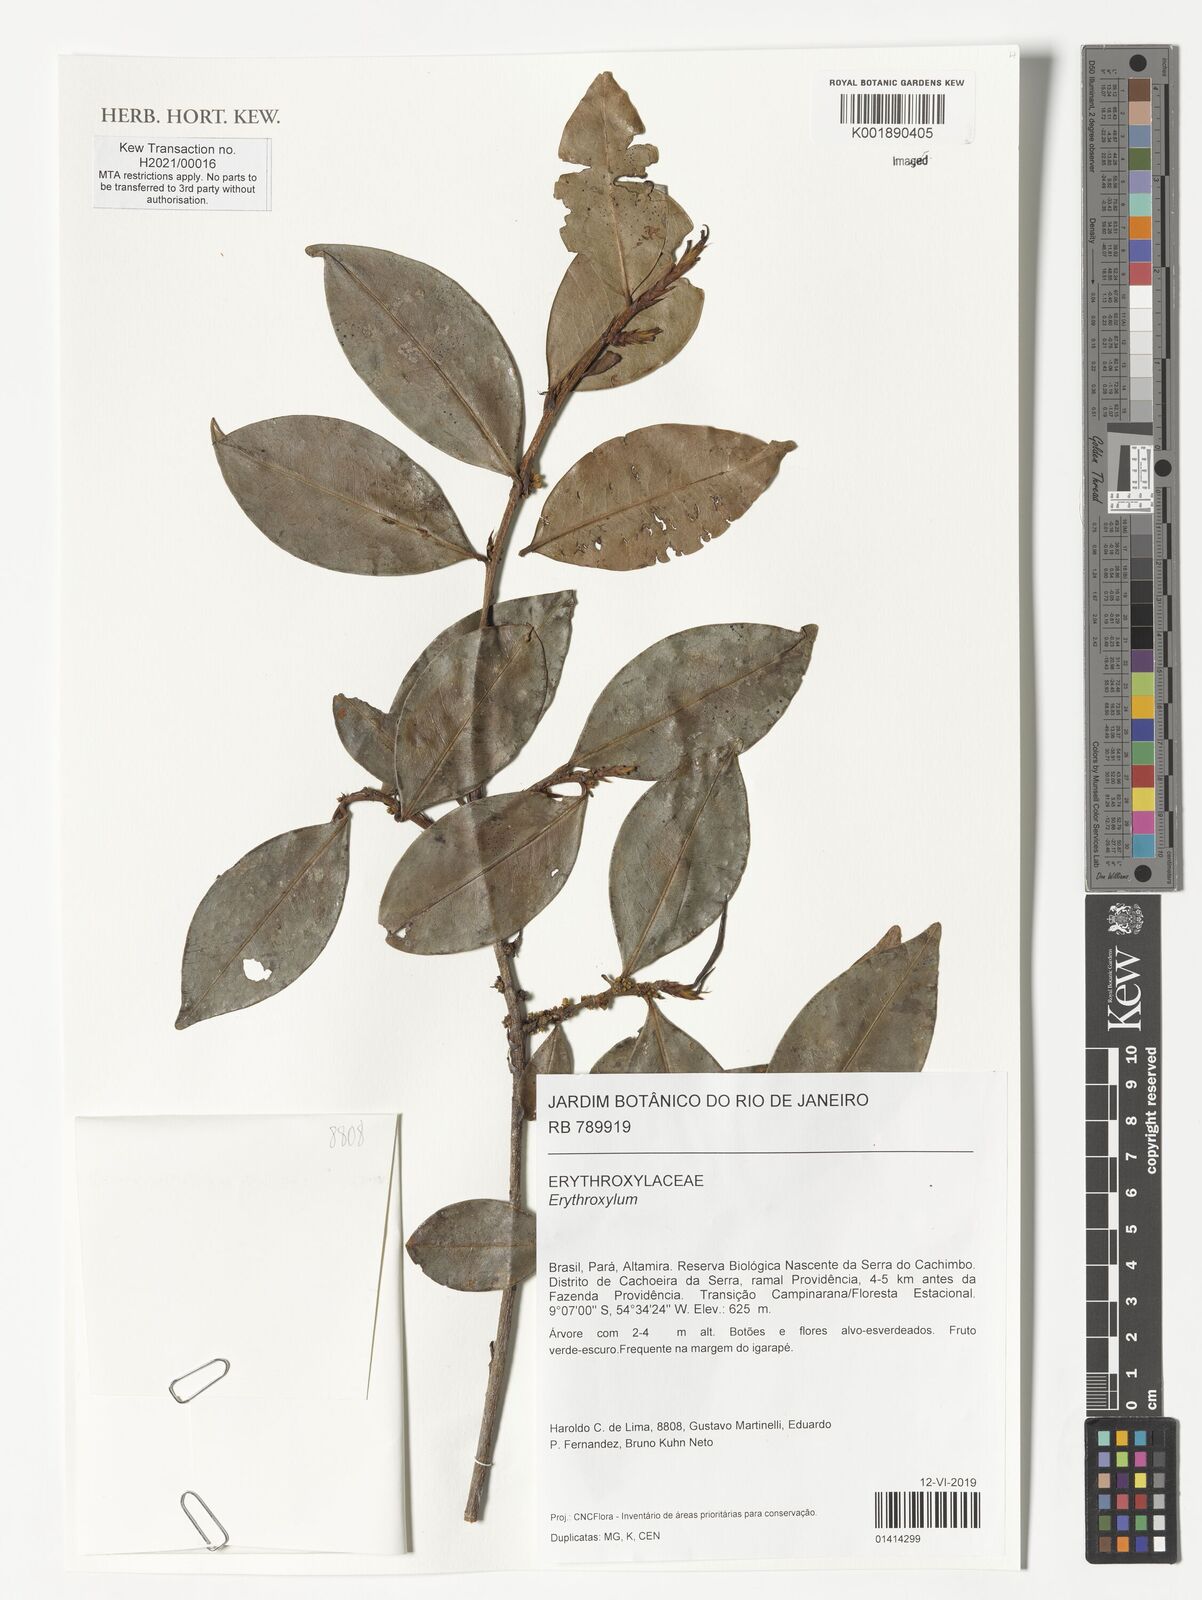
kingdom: Plantae
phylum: Tracheophyta
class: Magnoliopsida
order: Malpighiales
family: Erythroxylaceae
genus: Erythroxylum
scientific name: Erythroxylum
